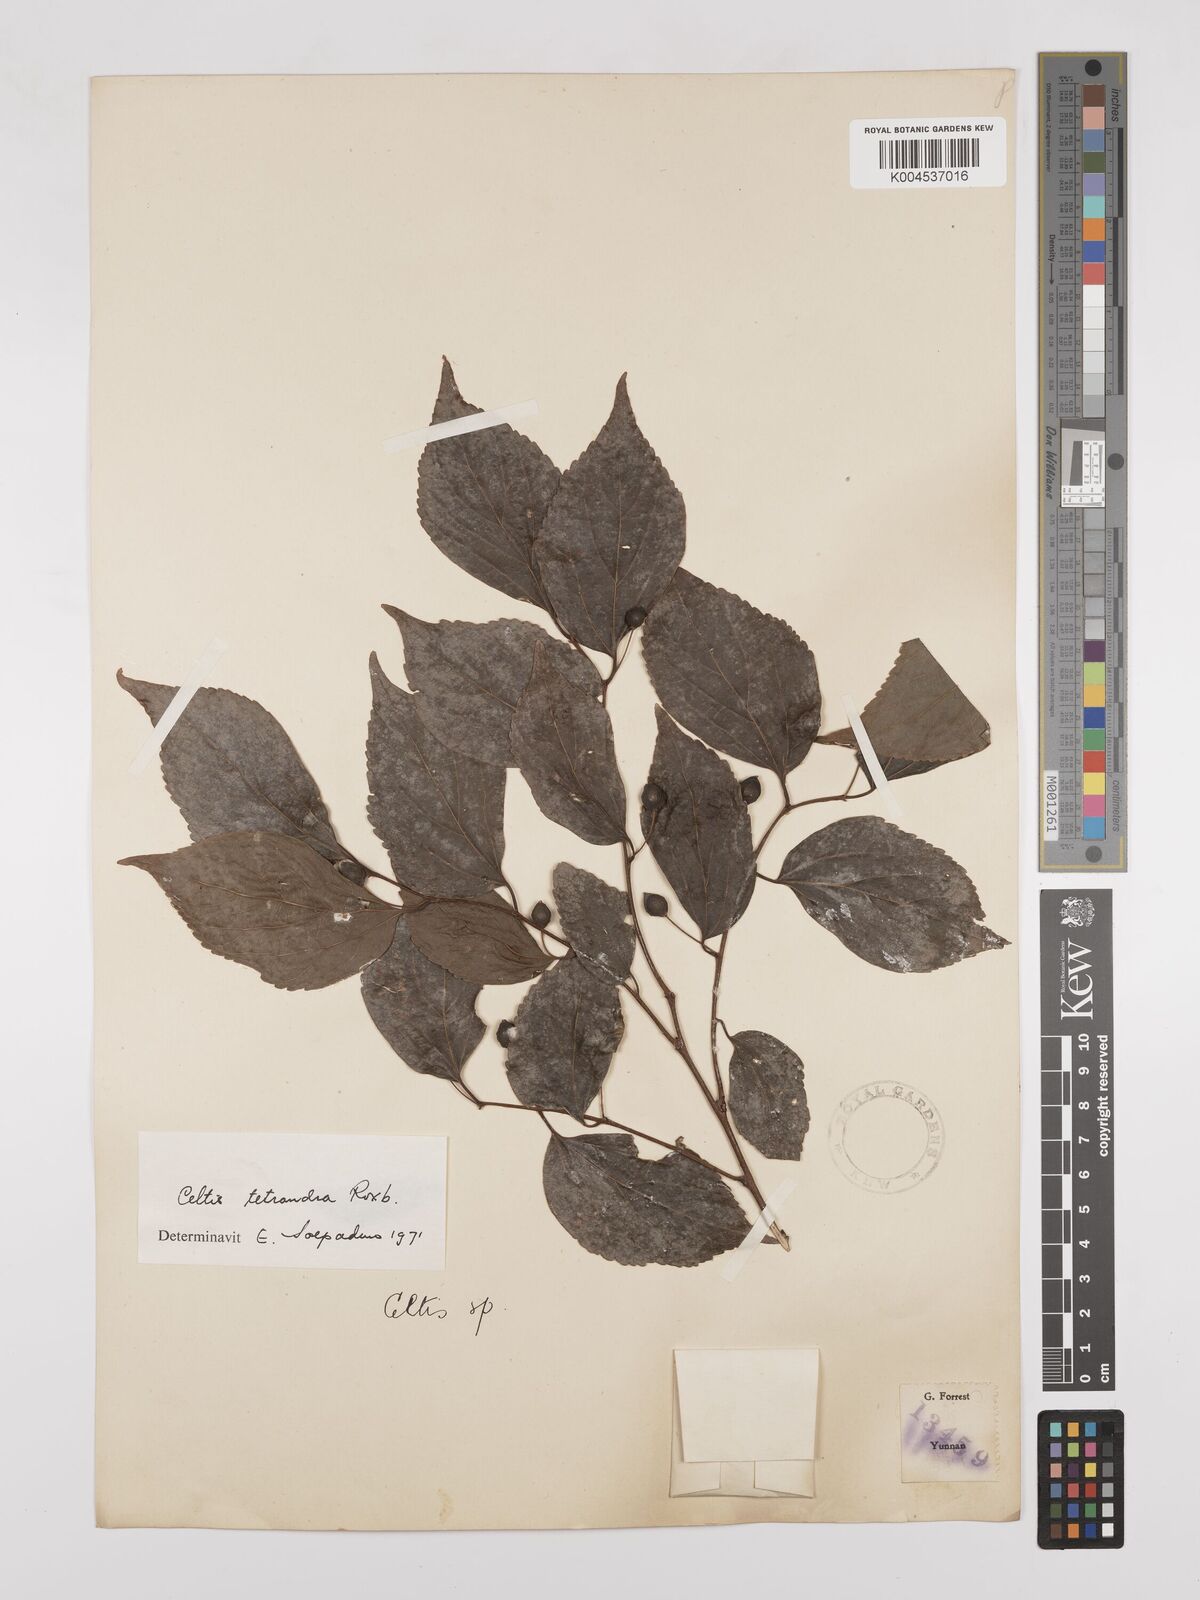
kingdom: Plantae
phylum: Tracheophyta
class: Magnoliopsida
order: Rosales
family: Cannabaceae
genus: Celtis
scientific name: Celtis tetrandra
